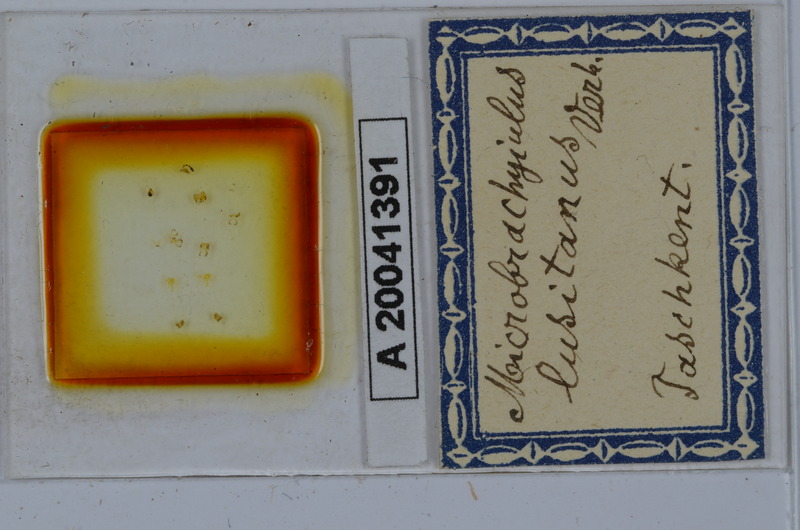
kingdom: Animalia
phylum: Arthropoda
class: Diplopoda
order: Julida
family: Julidae
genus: Brachyiulus
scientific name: Brachyiulus lusitanus
